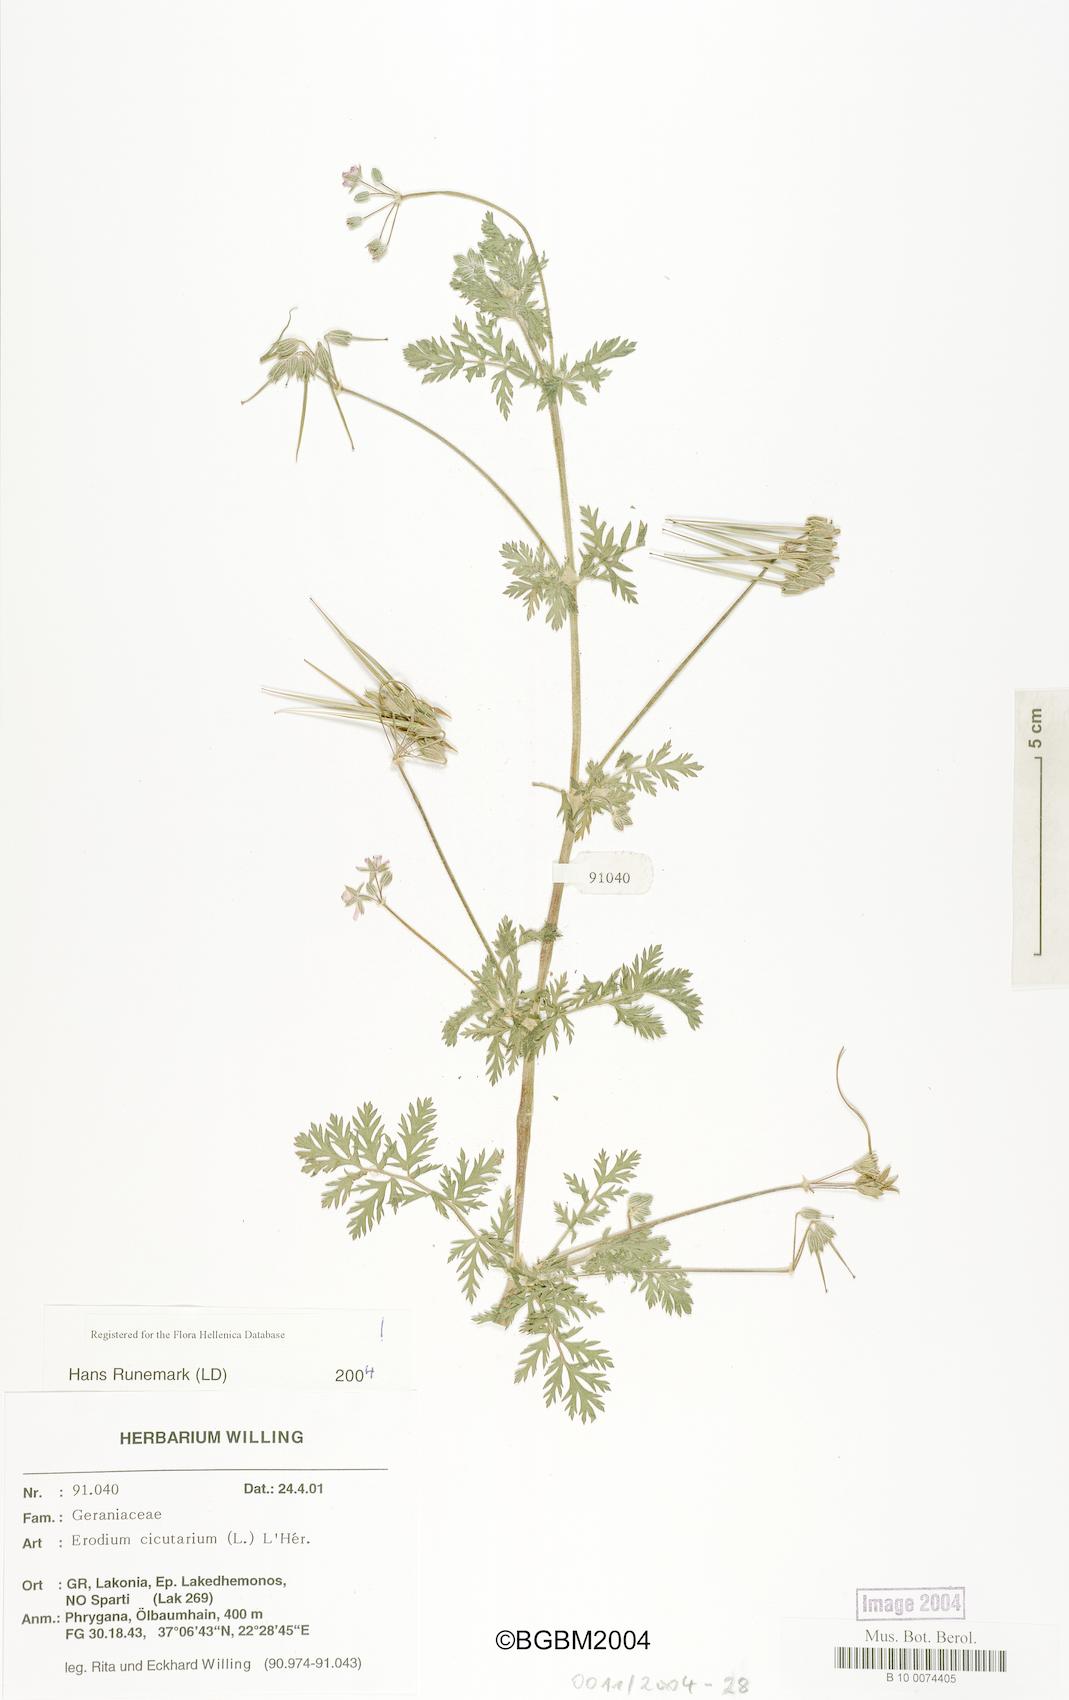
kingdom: Plantae
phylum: Tracheophyta
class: Magnoliopsida
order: Geraniales
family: Geraniaceae
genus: Erodium
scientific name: Erodium cicutarium
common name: Common stork's-bill
